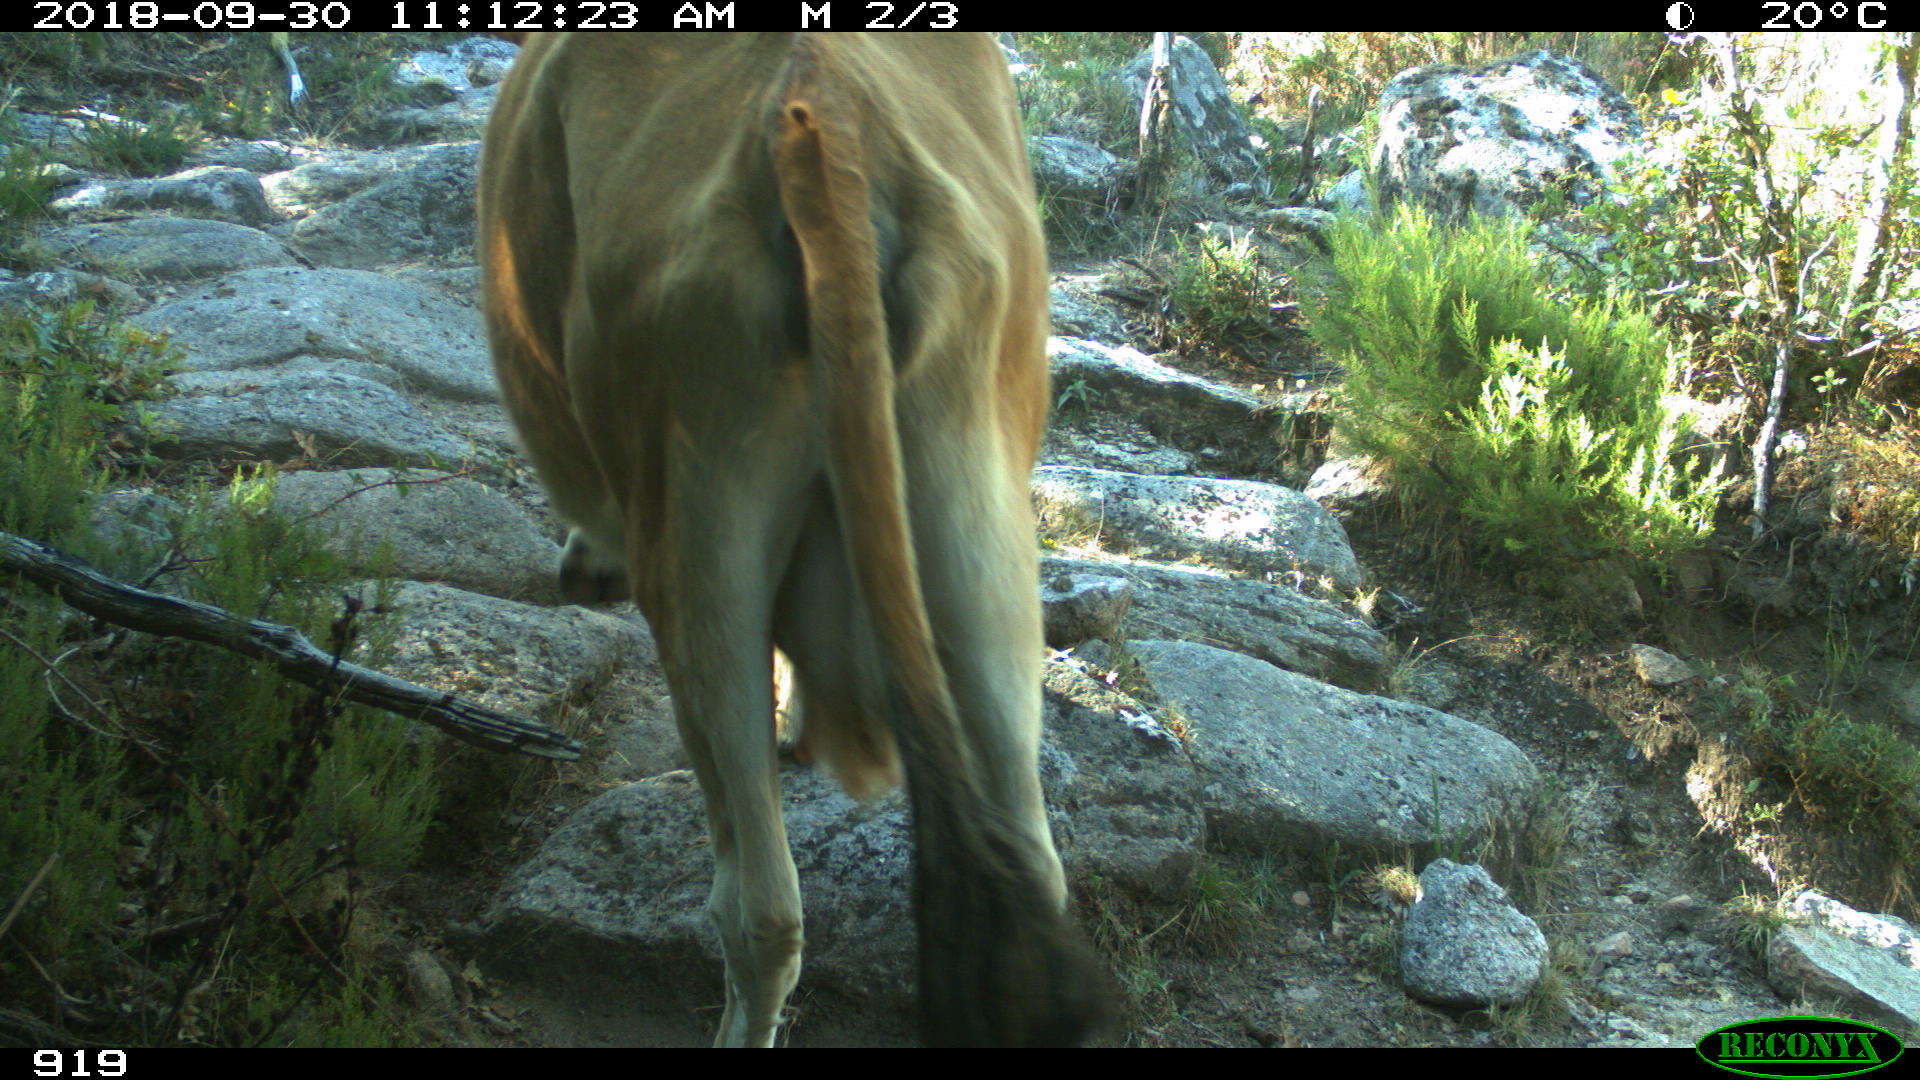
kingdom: Animalia
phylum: Chordata
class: Mammalia
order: Artiodactyla
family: Bovidae
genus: Bos
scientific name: Bos taurus
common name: Domesticated cattle
